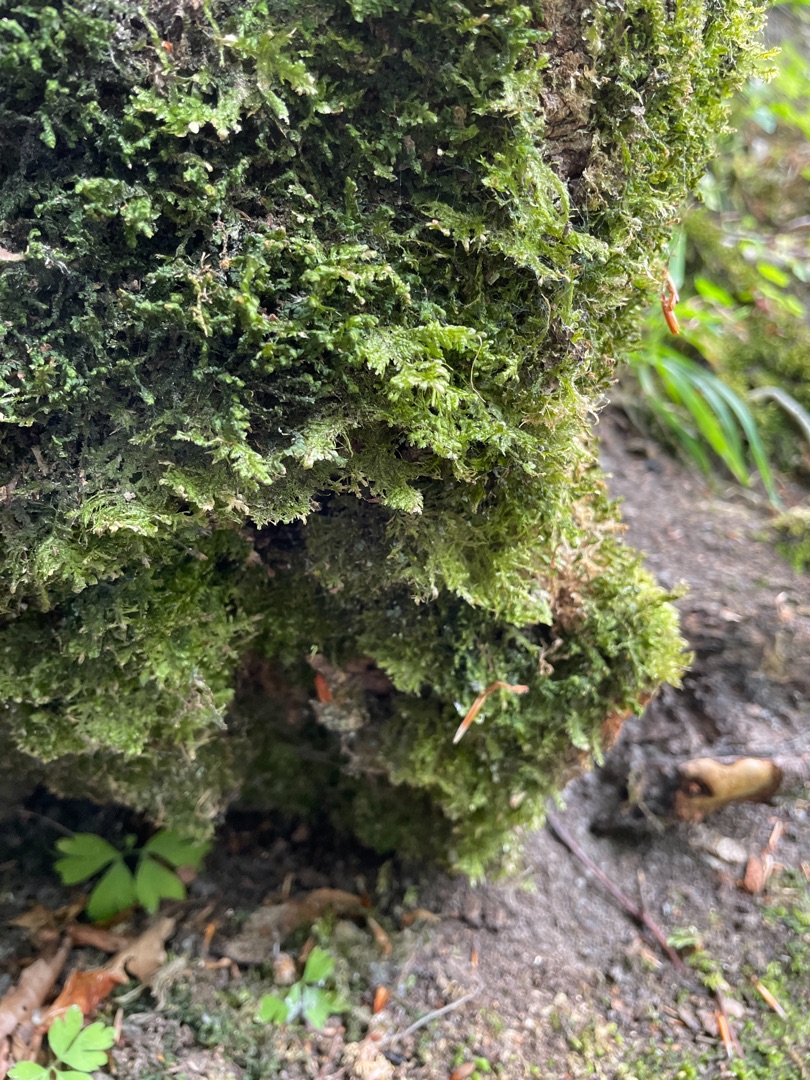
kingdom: Plantae
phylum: Bryophyta
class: Bryopsida
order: Hypnales
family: Neckeraceae
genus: Alleniella
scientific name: Alleniella complanata
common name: Almindelig fladmos
